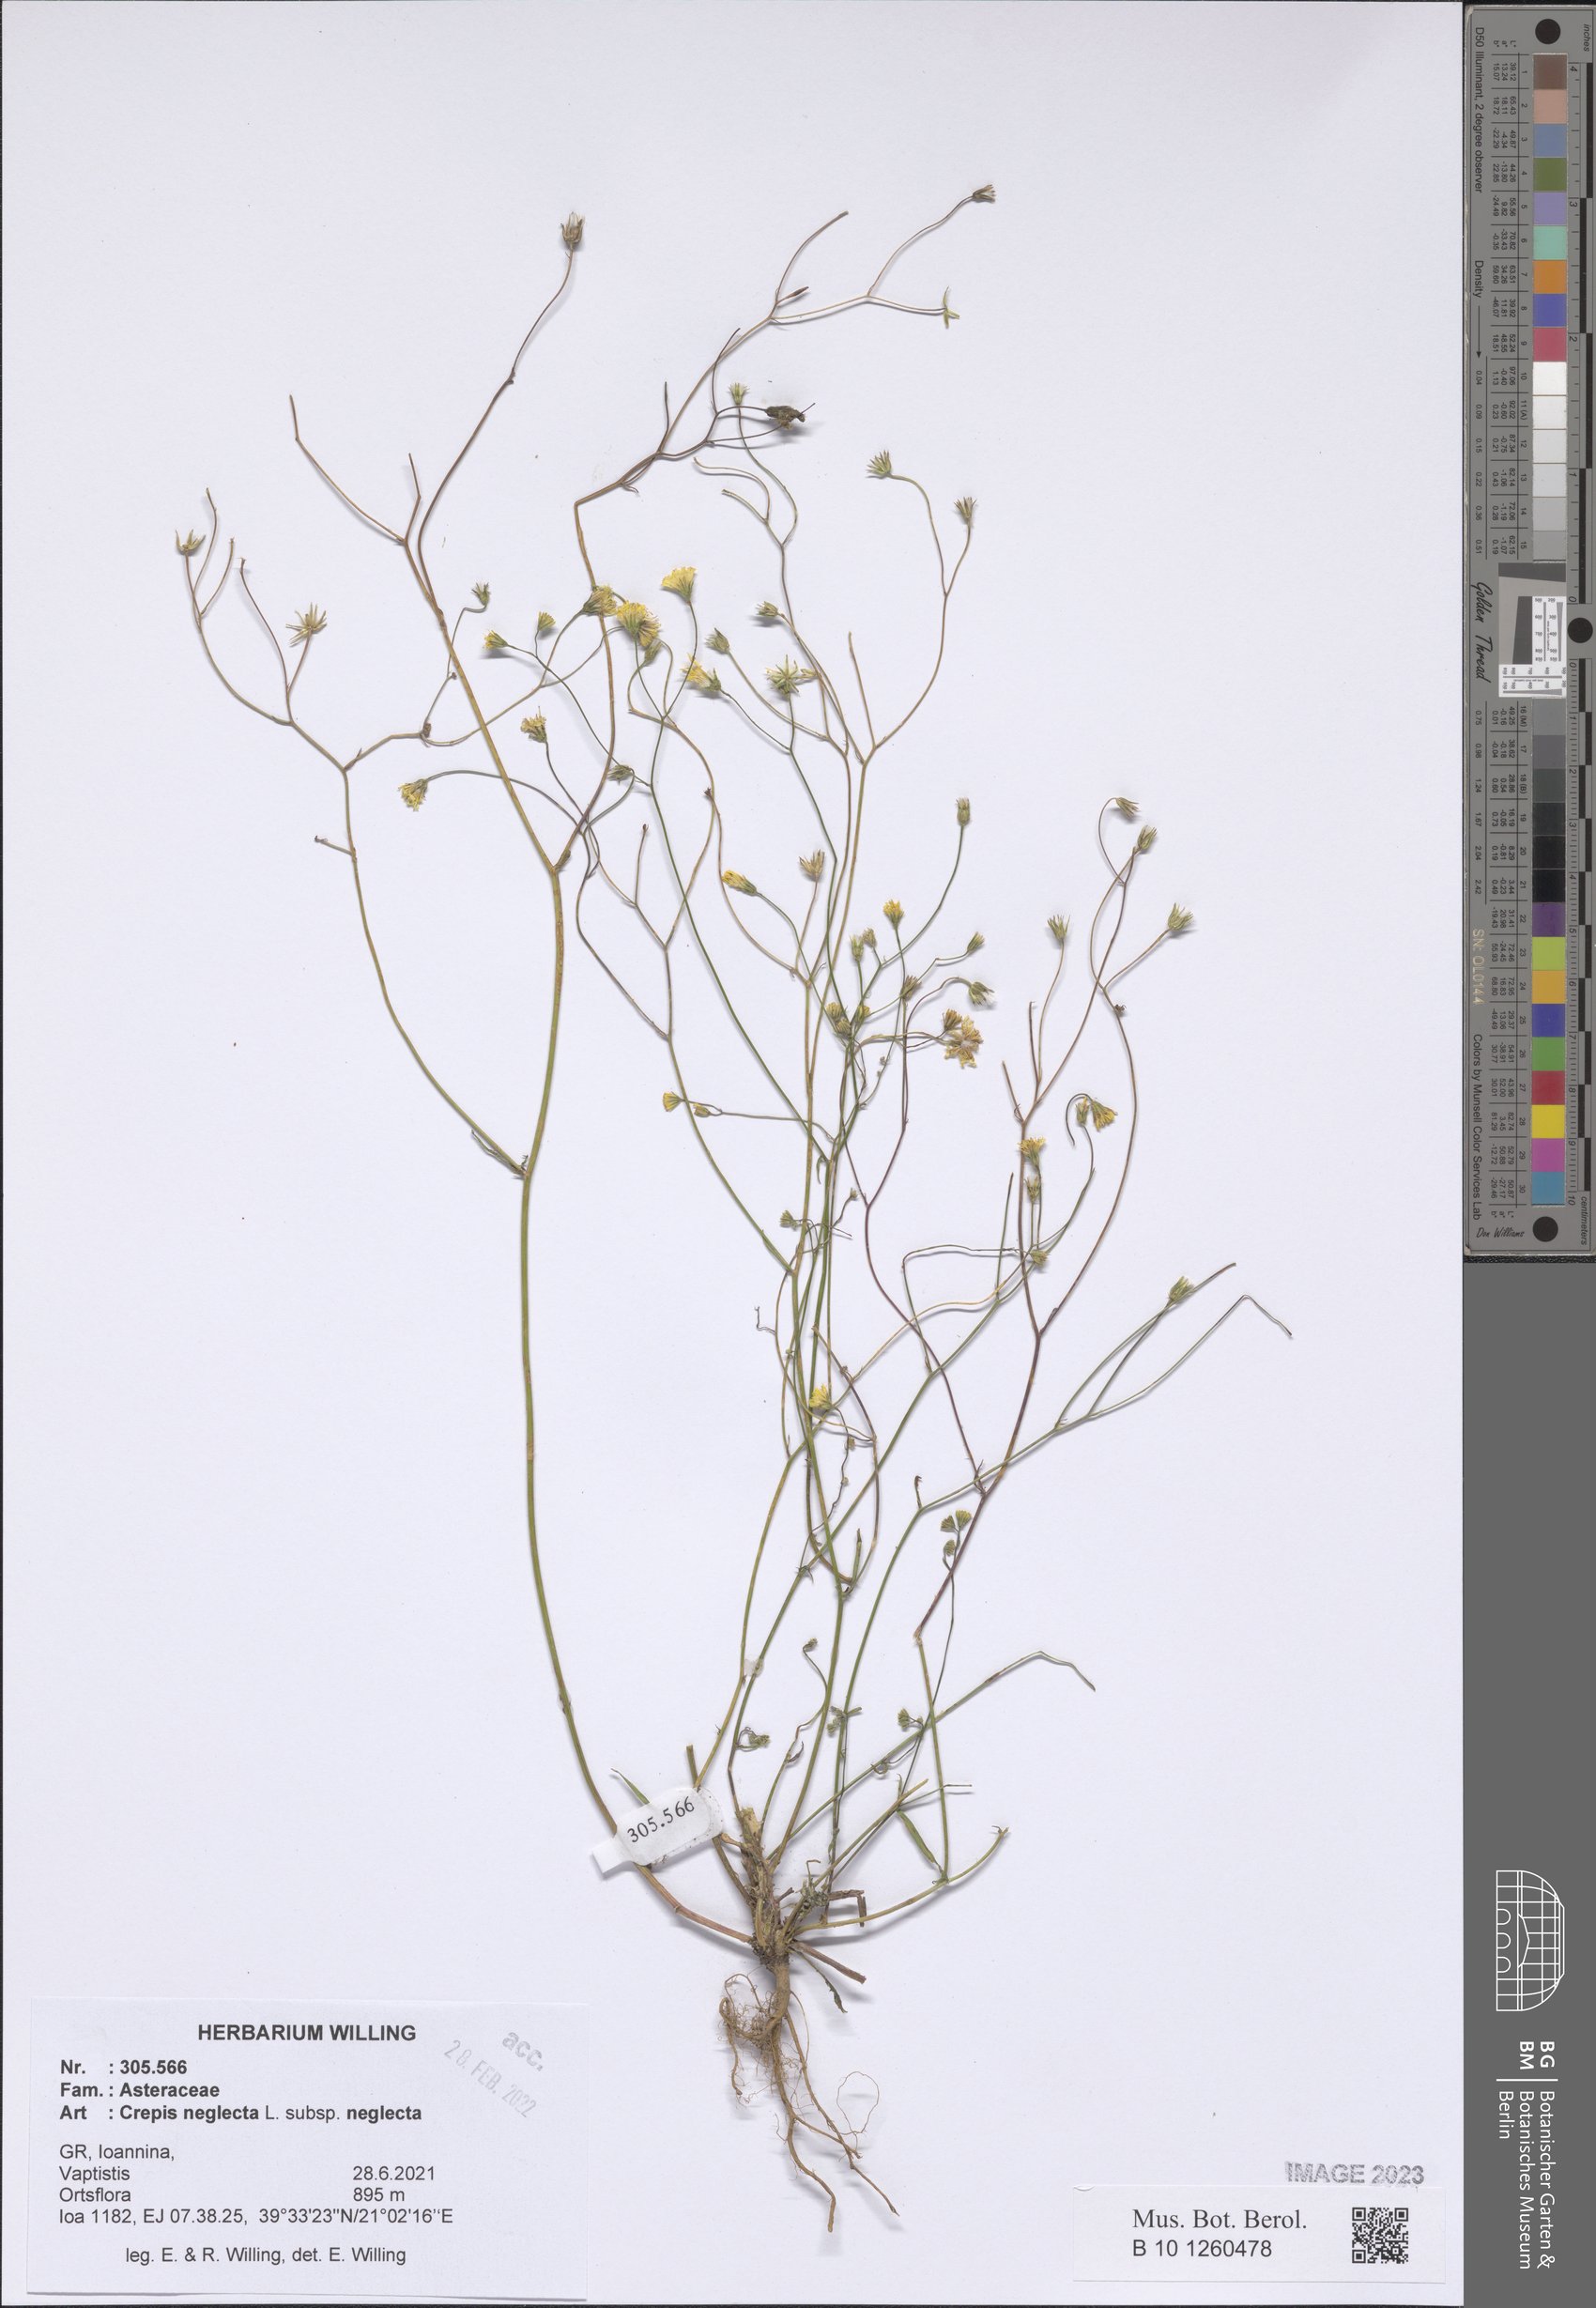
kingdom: Plantae
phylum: Tracheophyta
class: Magnoliopsida
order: Asterales
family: Asteraceae
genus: Crepis
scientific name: Crepis neglecta
